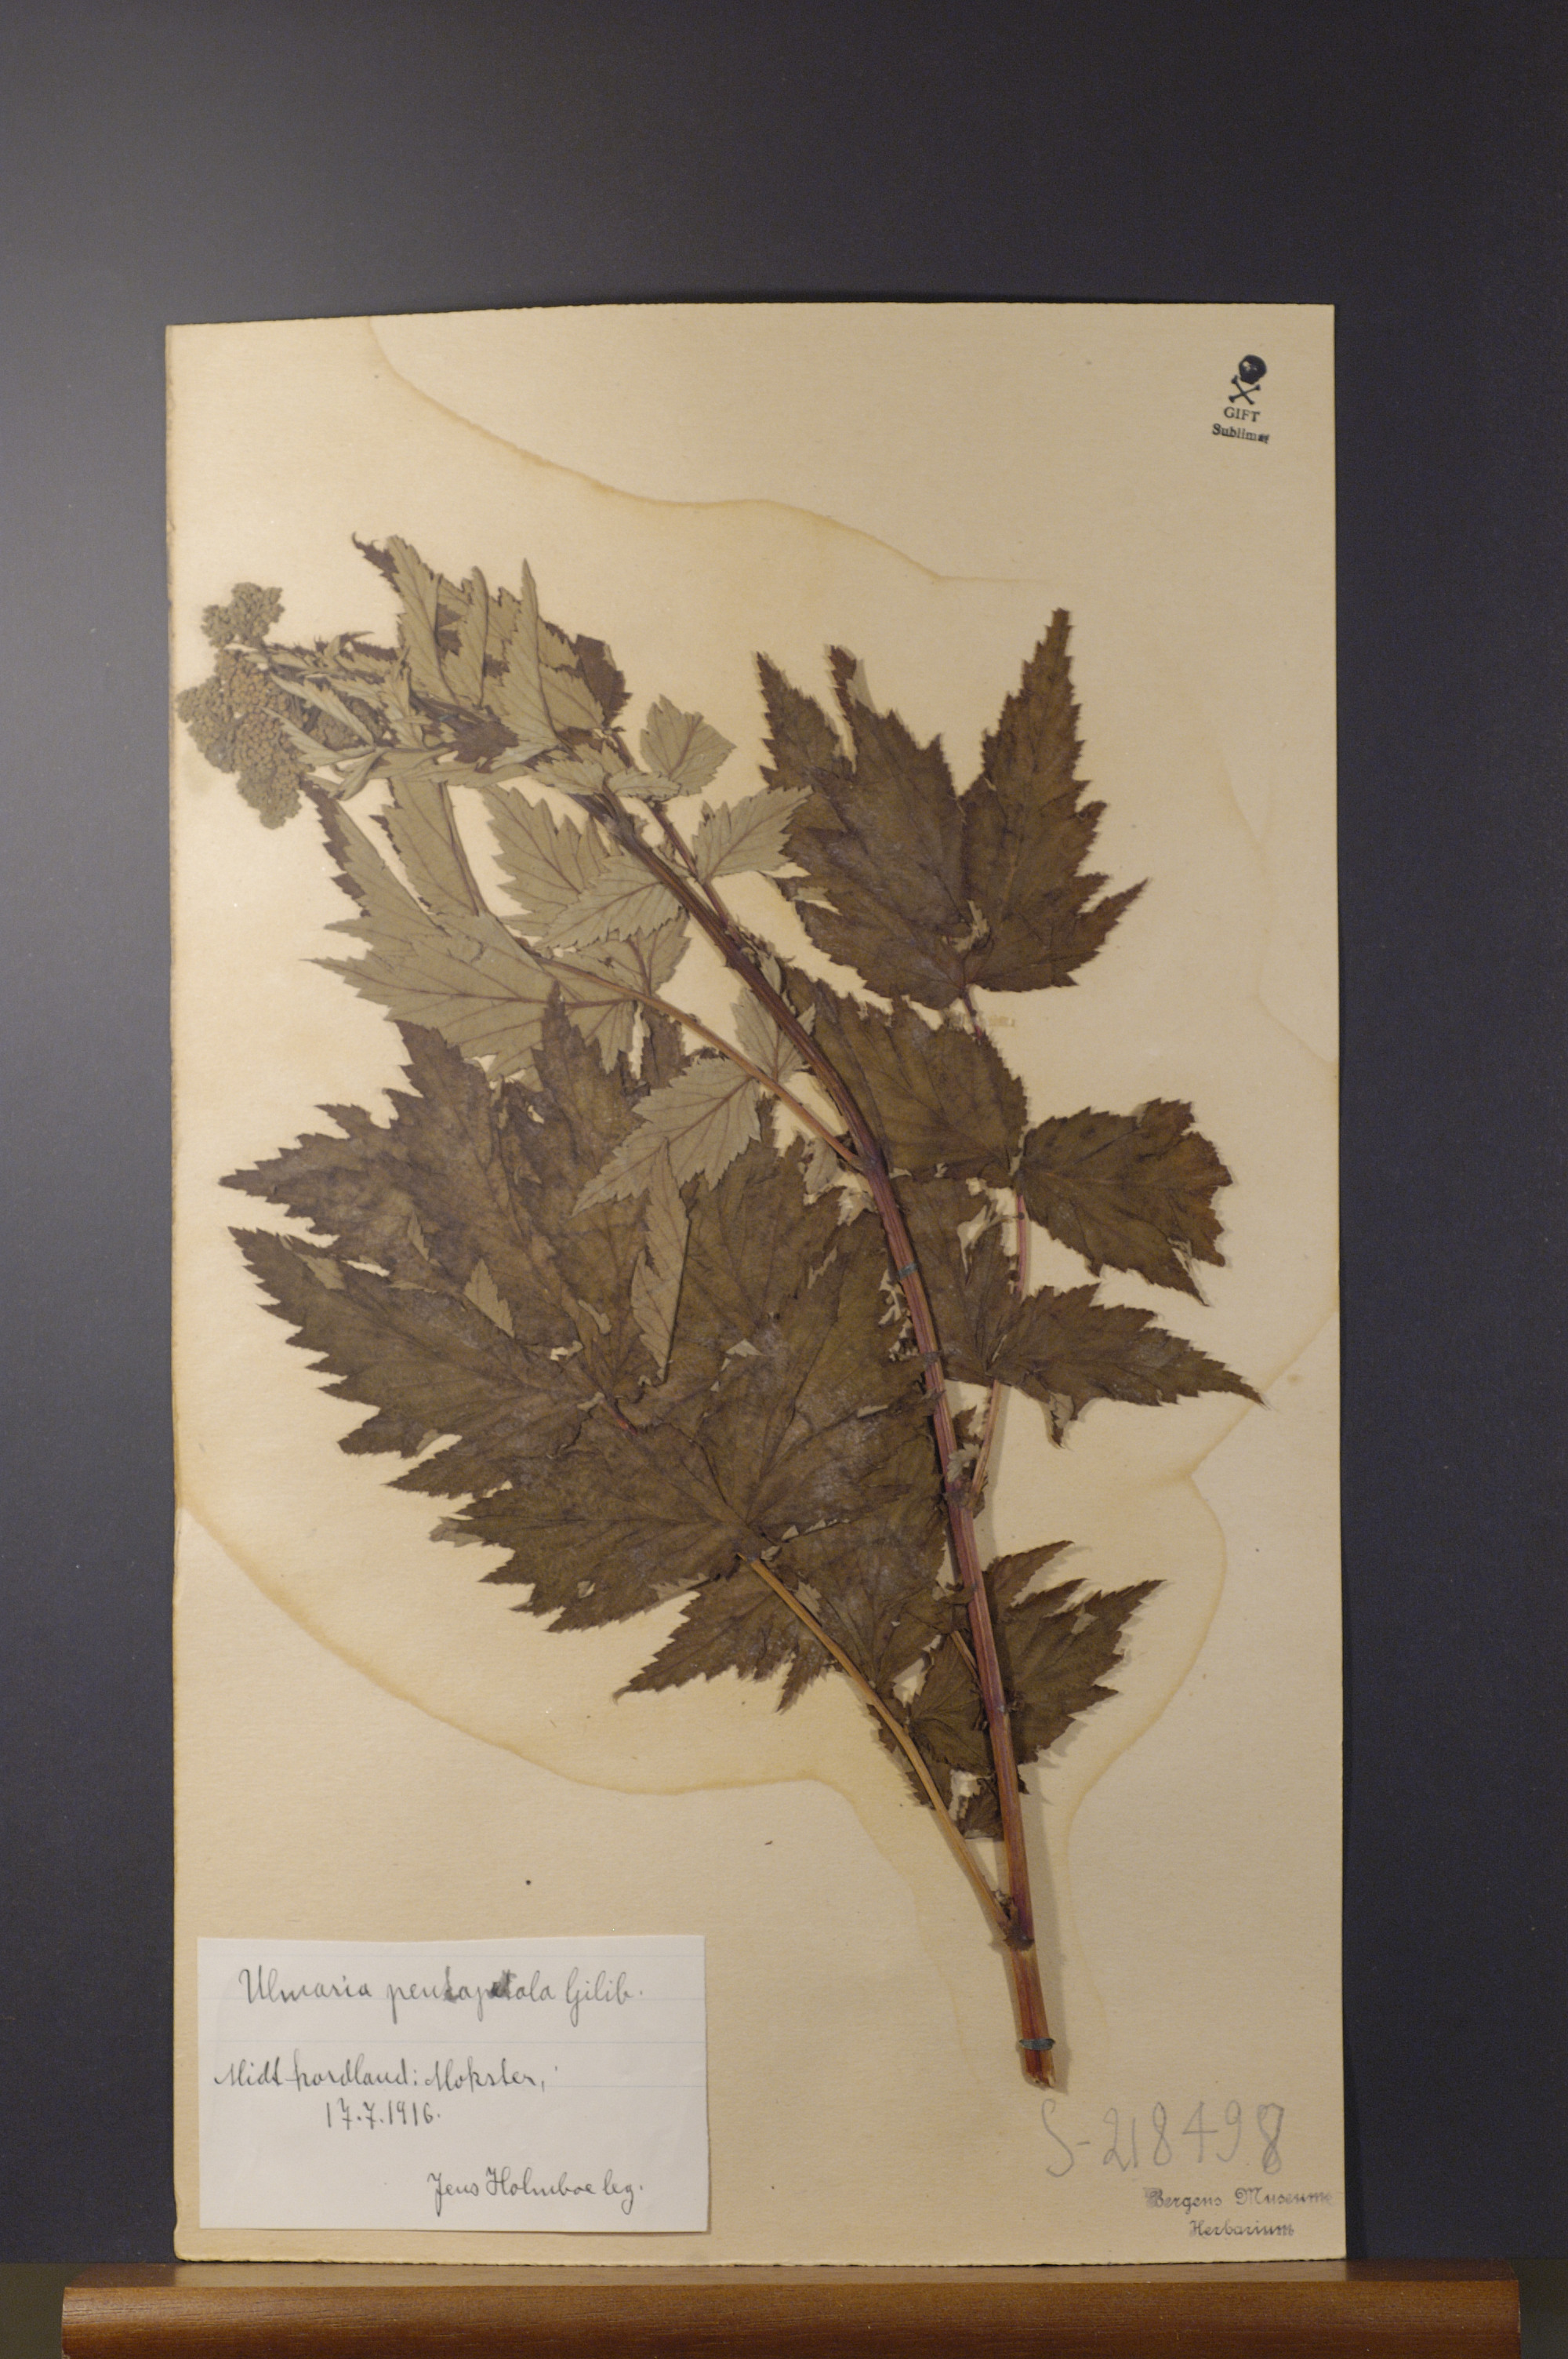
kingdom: Plantae
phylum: Tracheophyta
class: Magnoliopsida
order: Rosales
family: Rosaceae
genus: Filipendula
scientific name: Filipendula ulmaria
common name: Meadowsweet
